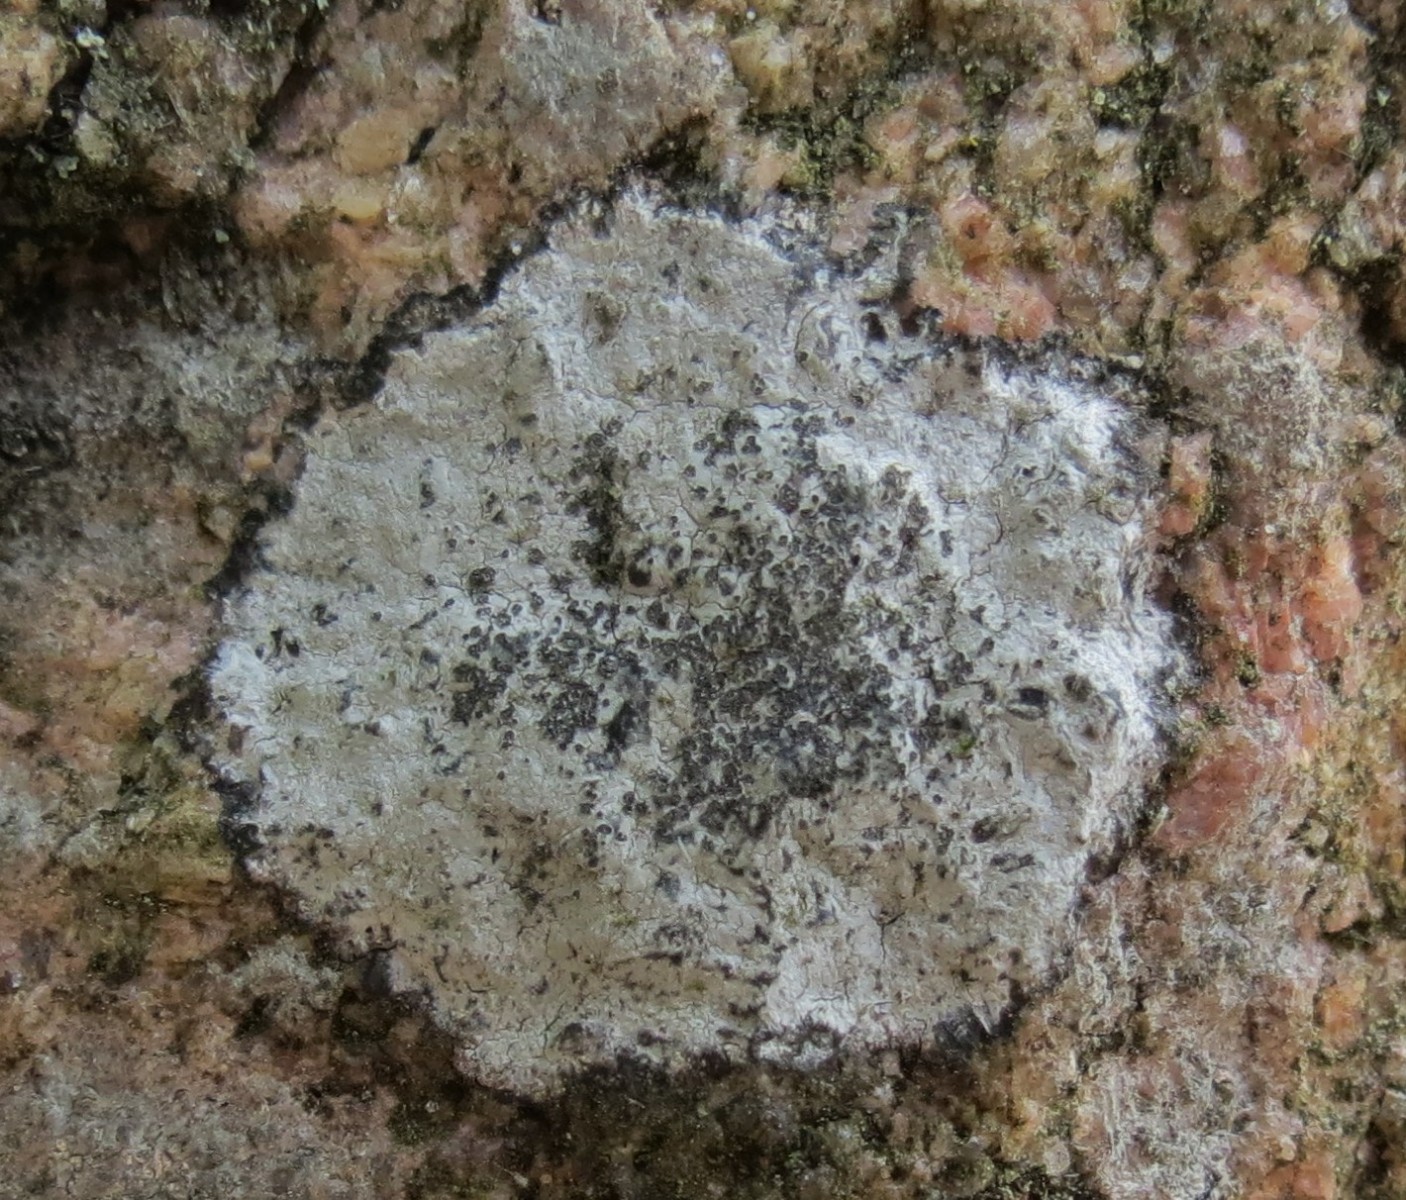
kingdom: Fungi
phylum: Ascomycota
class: Lecanoromycetes
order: Lecideales
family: Lecideaceae
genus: Porpidia
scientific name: Porpidia tuberculosa
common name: broget bredskivelav
